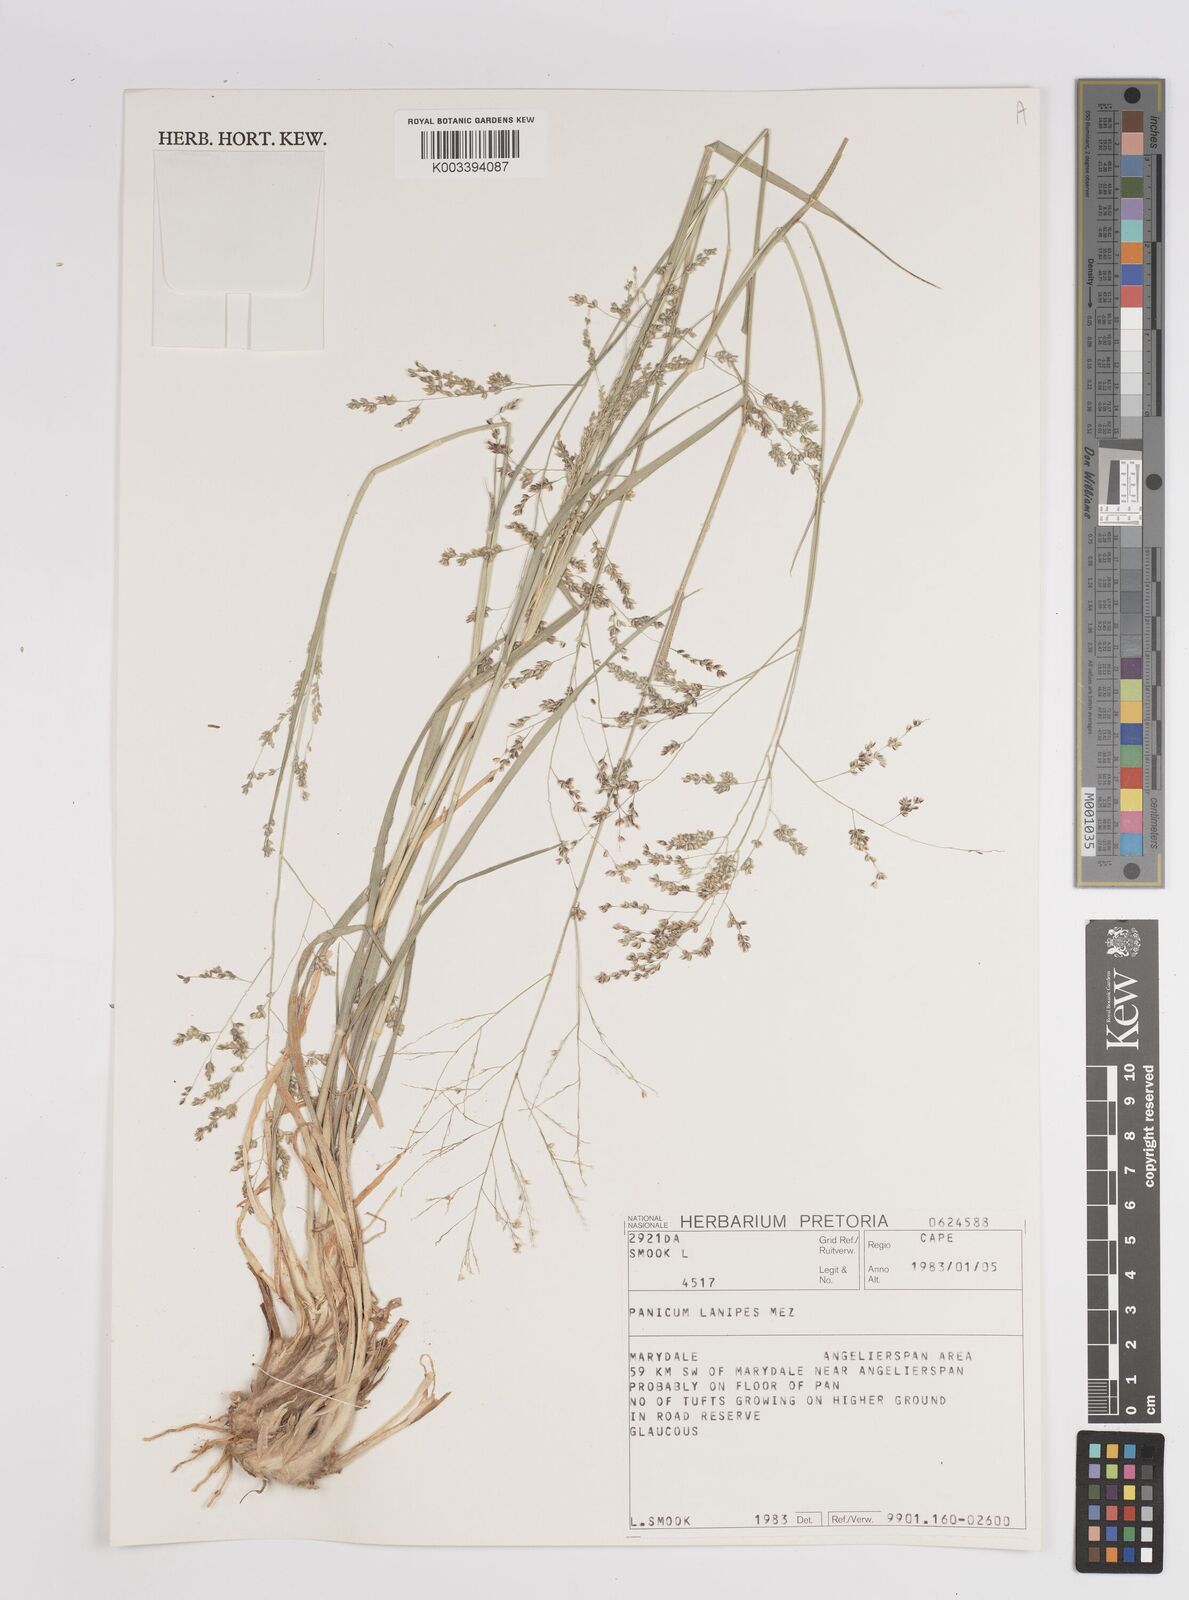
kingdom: Plantae
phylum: Tracheophyta
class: Liliopsida
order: Poales
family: Poaceae
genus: Panicum
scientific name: Panicum lanipes
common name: Wolvoet panicum
